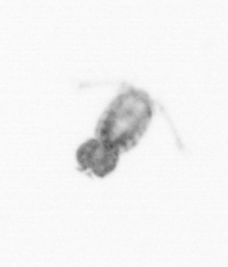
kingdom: Animalia
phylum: Arthropoda
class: Copepoda
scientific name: Copepoda
